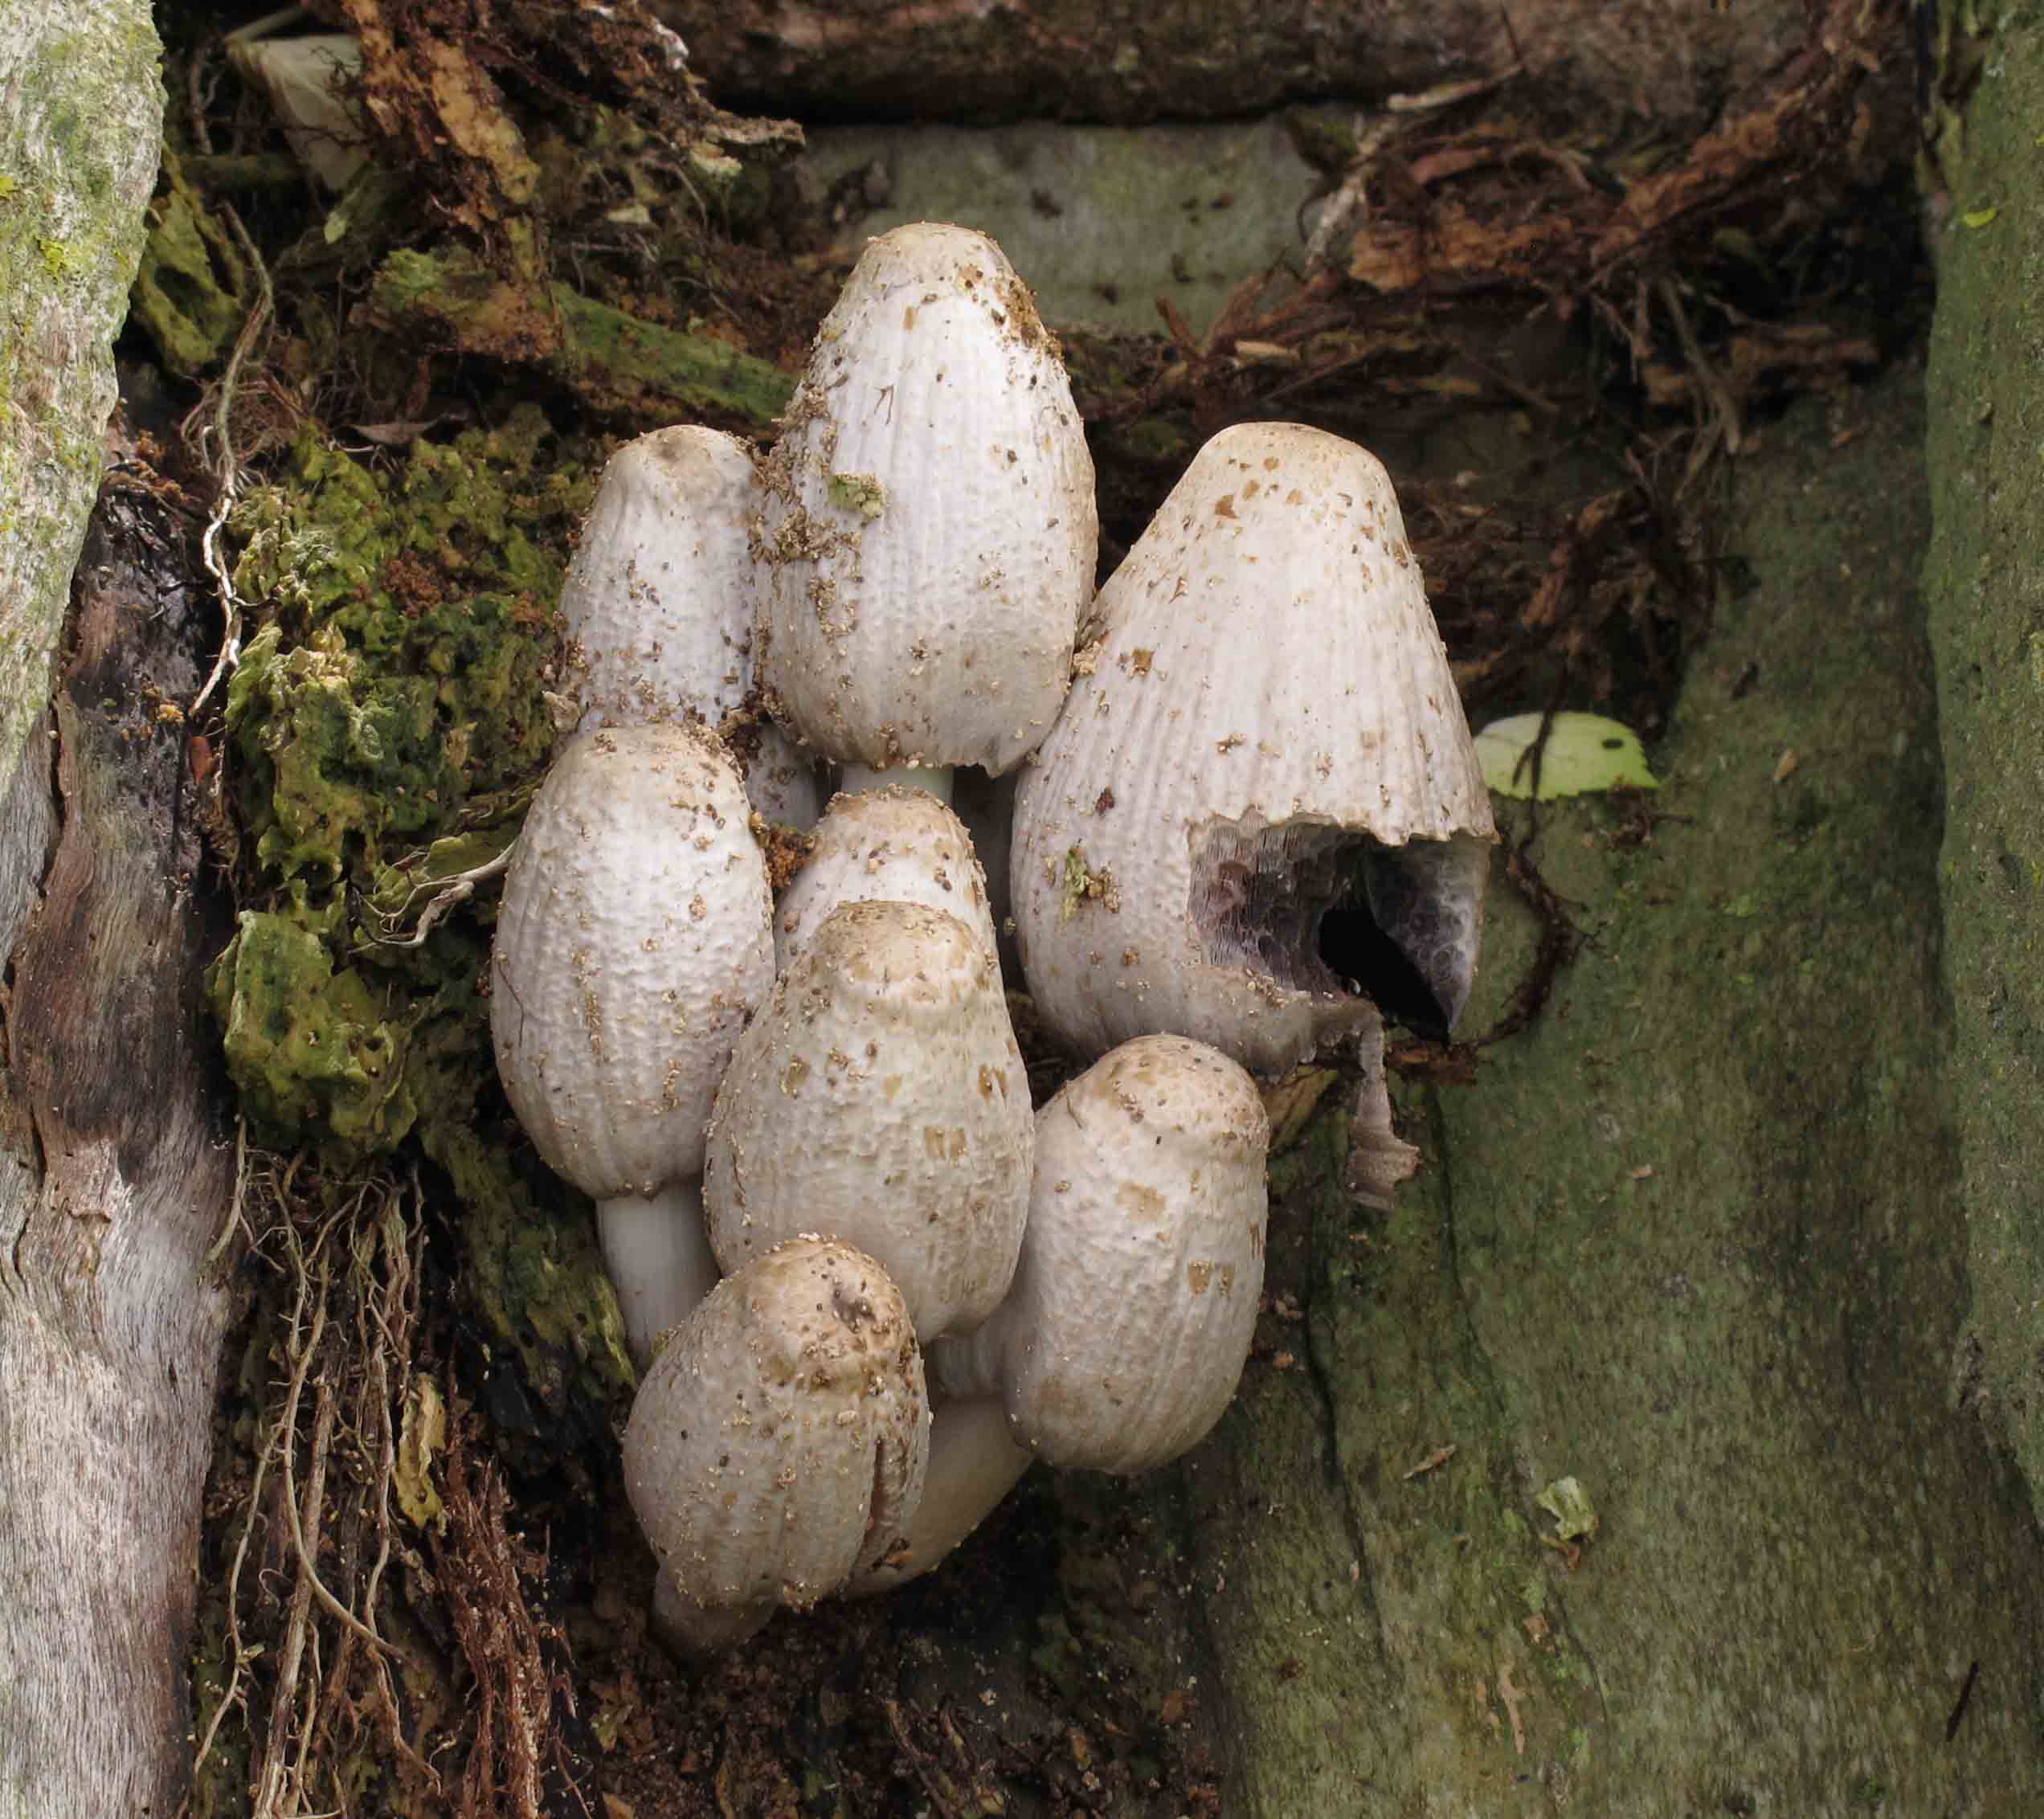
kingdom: Fungi
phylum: Basidiomycota
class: Agaricomycetes
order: Agaricales
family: Psathyrellaceae
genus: Coprinopsis
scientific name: Coprinopsis atramentaria
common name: almindelig blækhat
